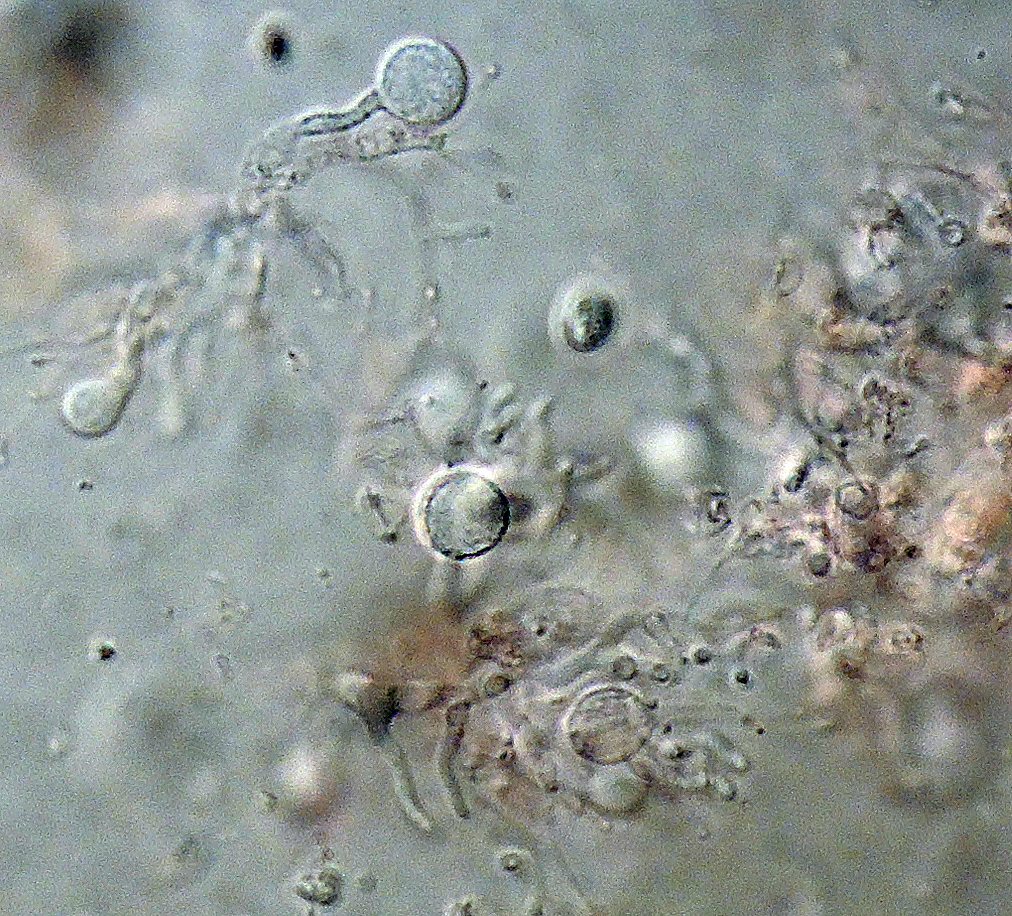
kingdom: Fungi
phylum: Basidiomycota
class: Agaricomycetes
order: Auriculariales
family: Hyaloriaceae
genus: Myxarium
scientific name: Myxarium minutissimum
